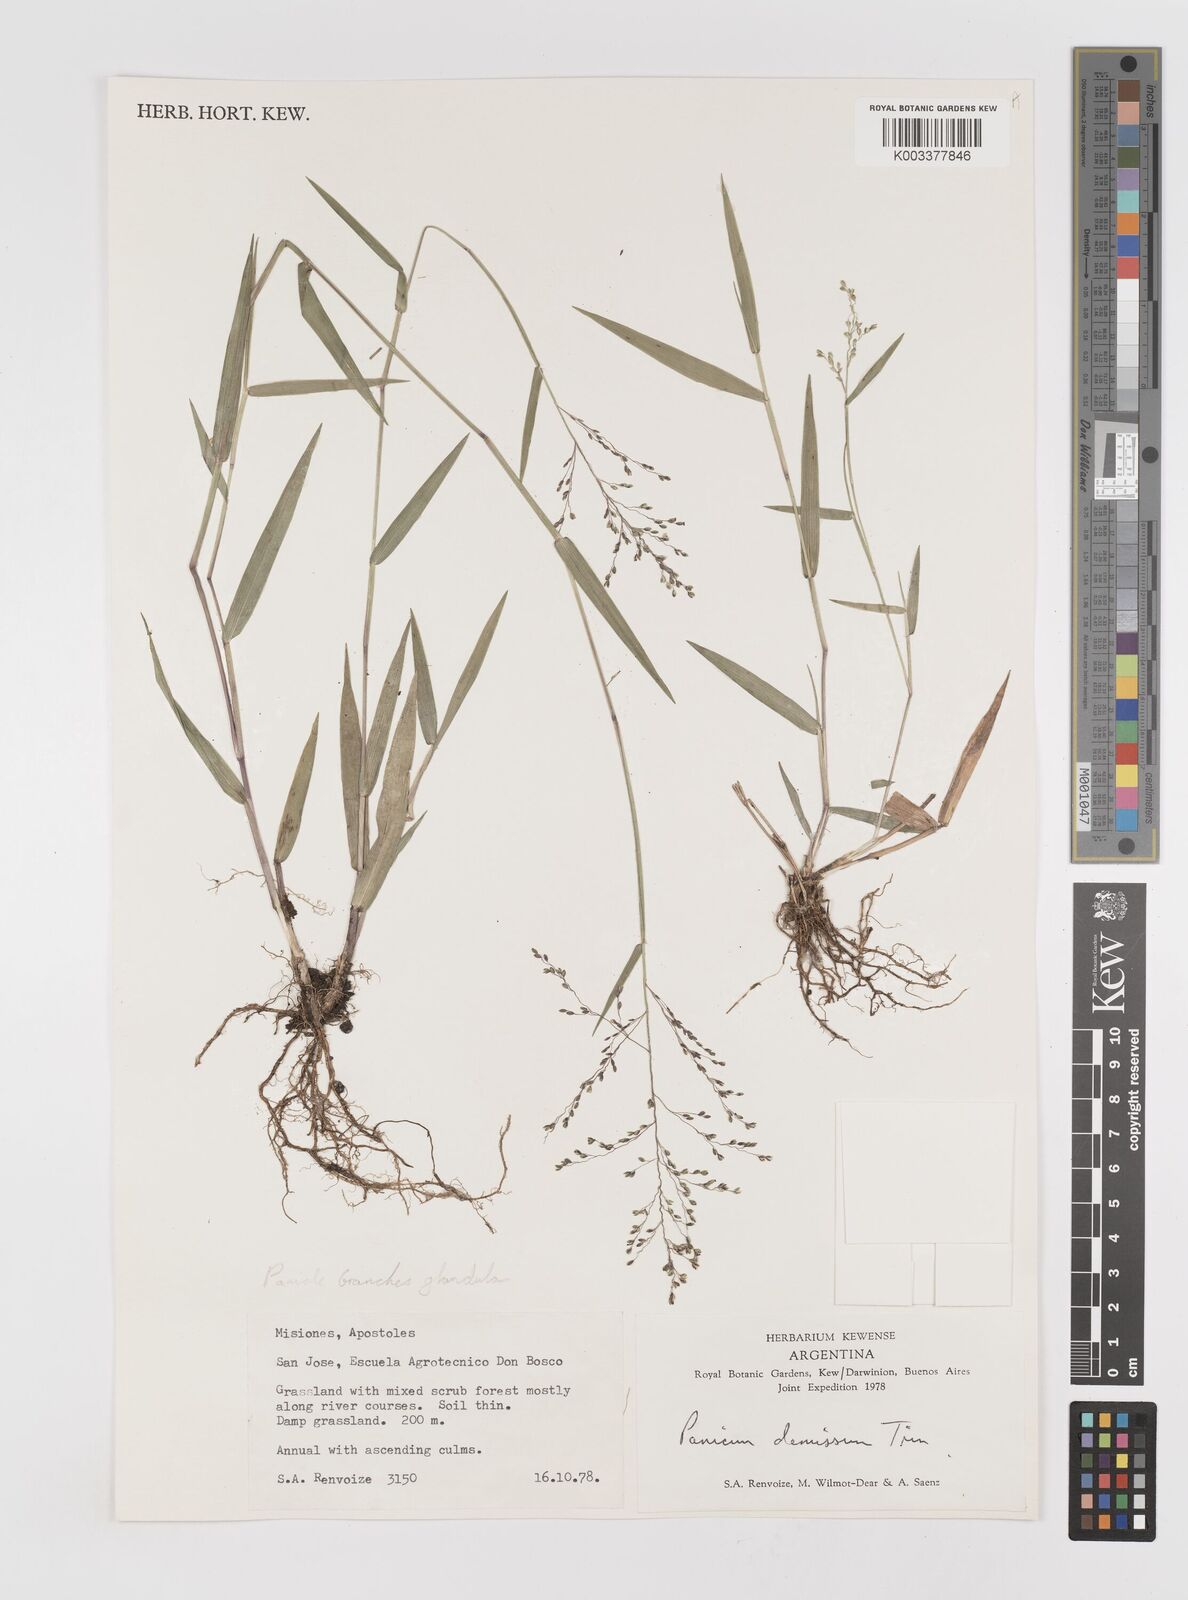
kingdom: Plantae
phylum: Tracheophyta
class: Liliopsida
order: Poales
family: Poaceae
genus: Dichanthelium
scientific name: Dichanthelium stigmosum
